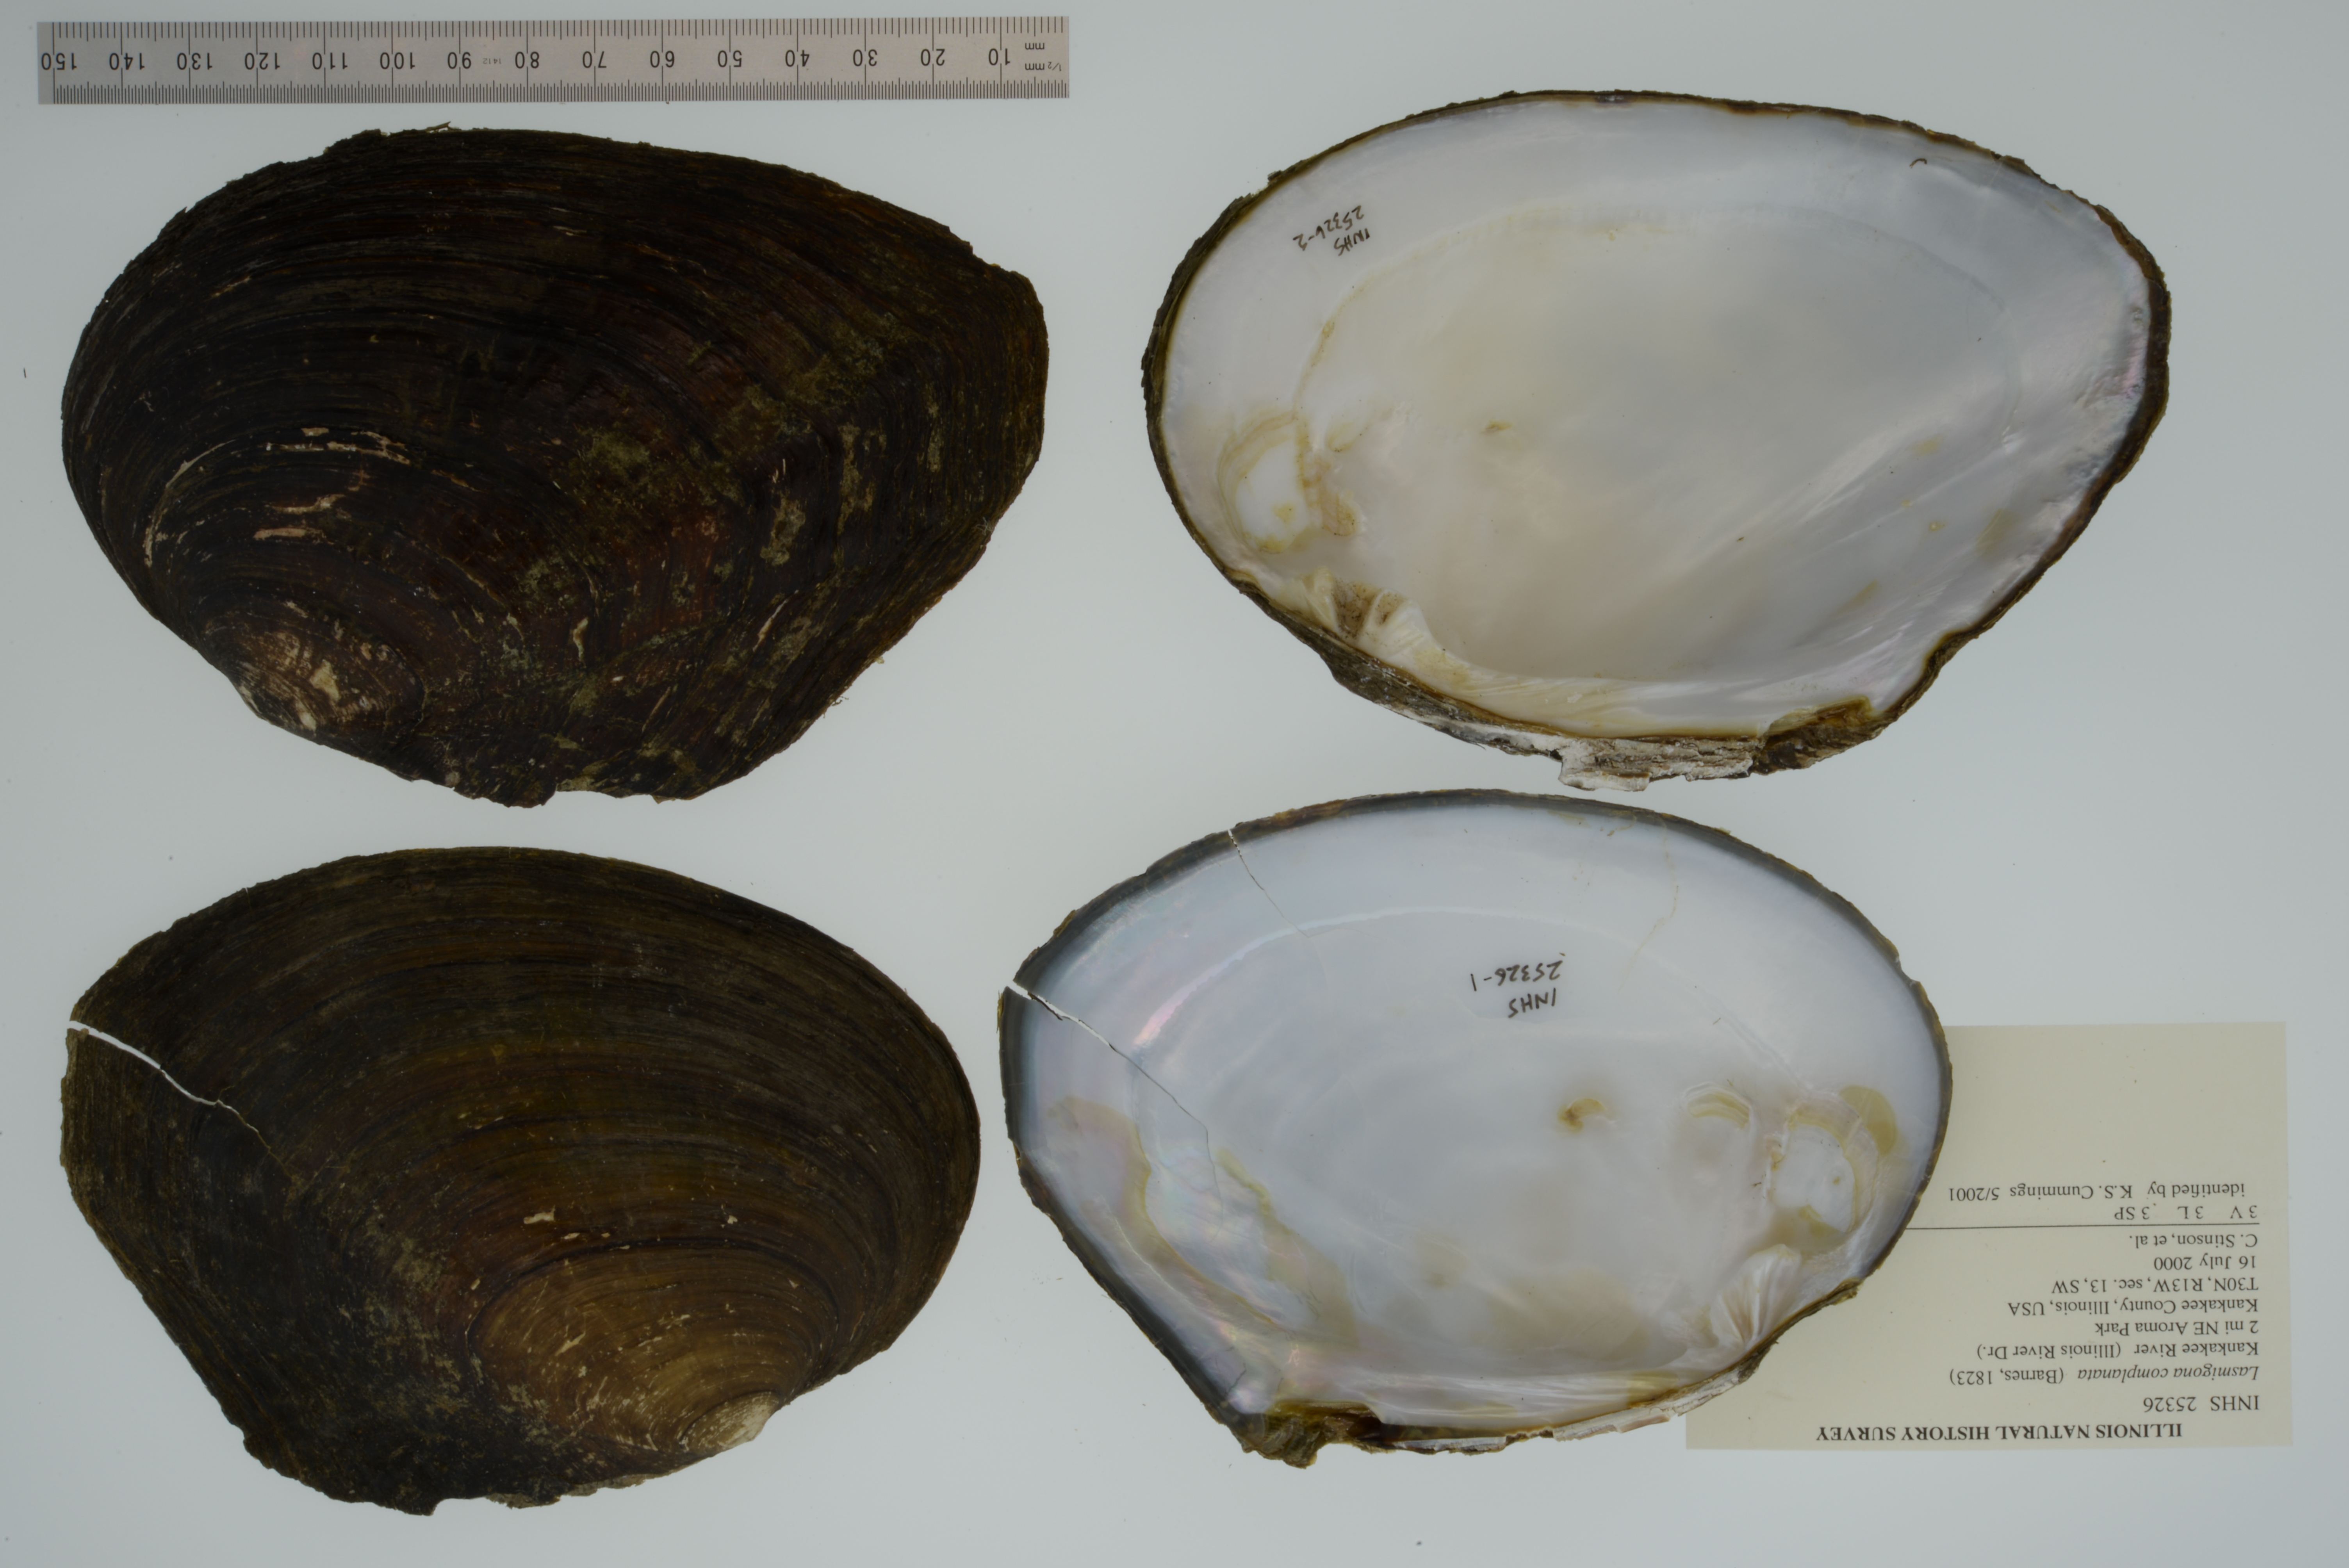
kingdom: Animalia
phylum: Mollusca
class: Bivalvia
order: Unionida
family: Unionidae
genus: Lasmigona
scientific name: Lasmigona complanata
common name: White heelsplitter
